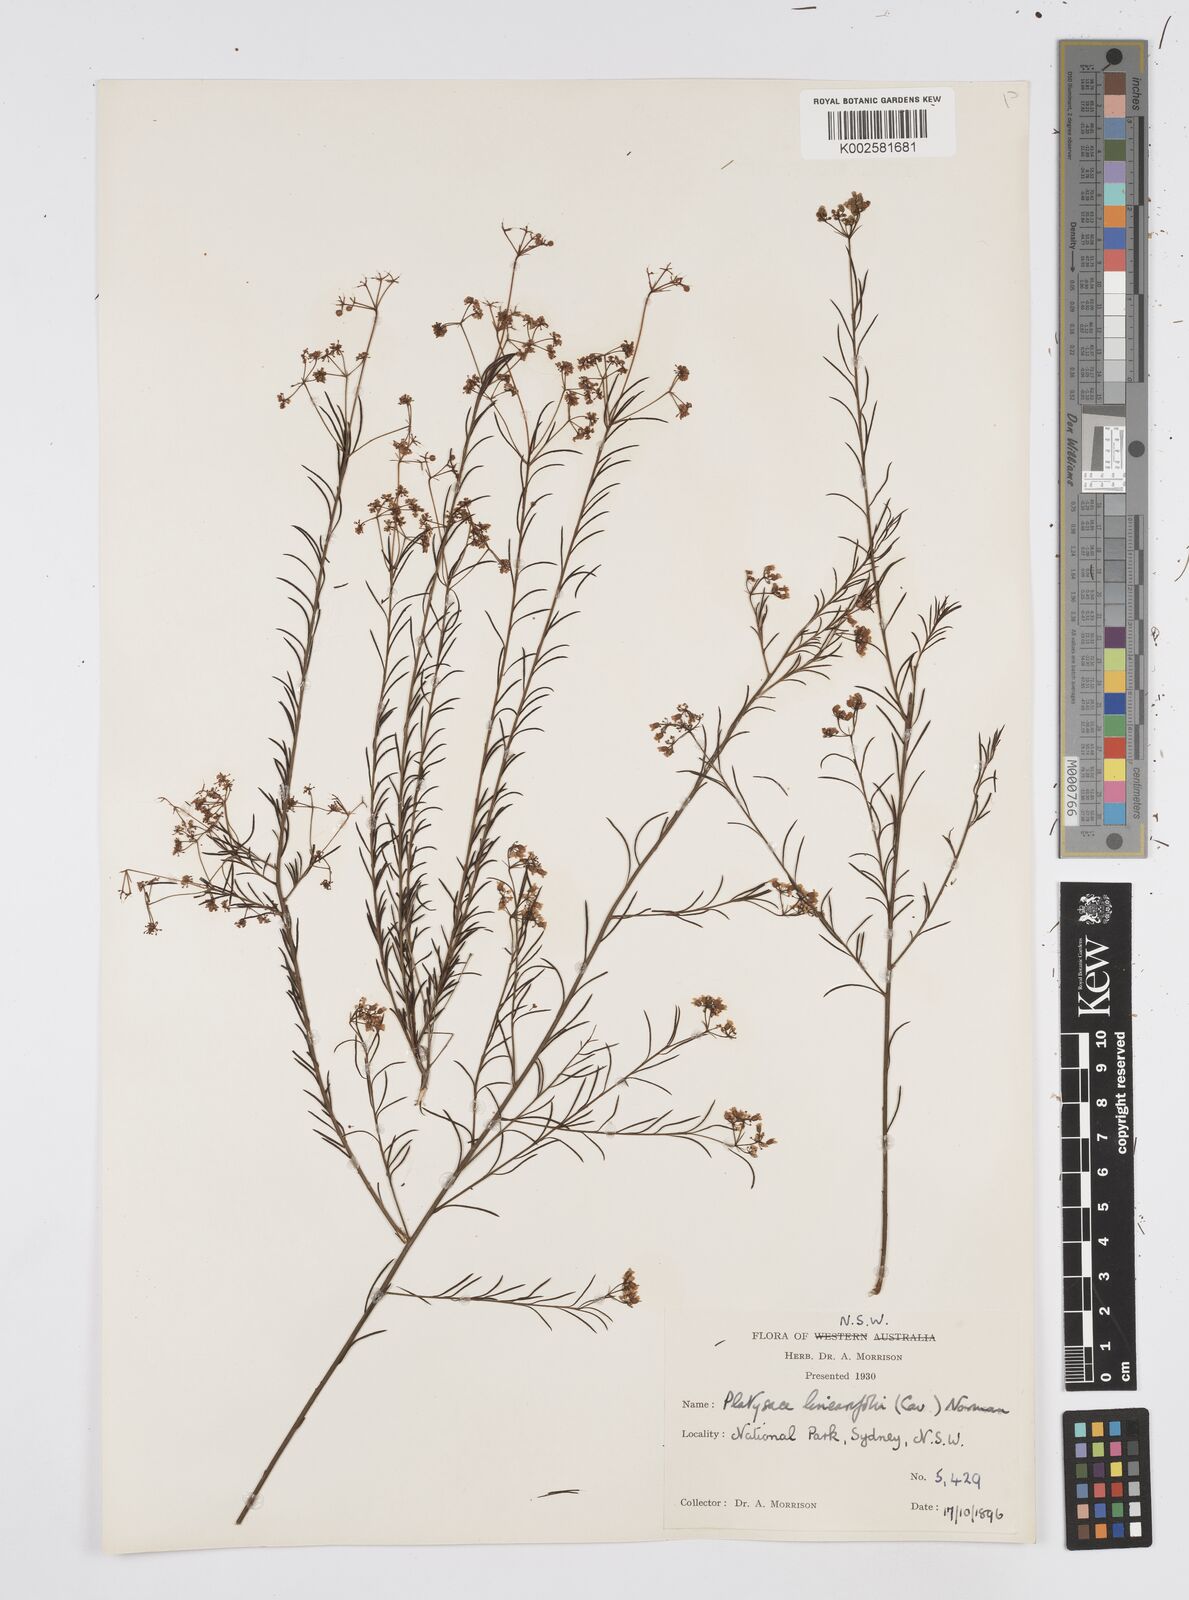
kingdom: Plantae
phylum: Tracheophyta
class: Magnoliopsida
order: Apiales
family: Apiaceae
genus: Platysace
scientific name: Platysace linearifolia
